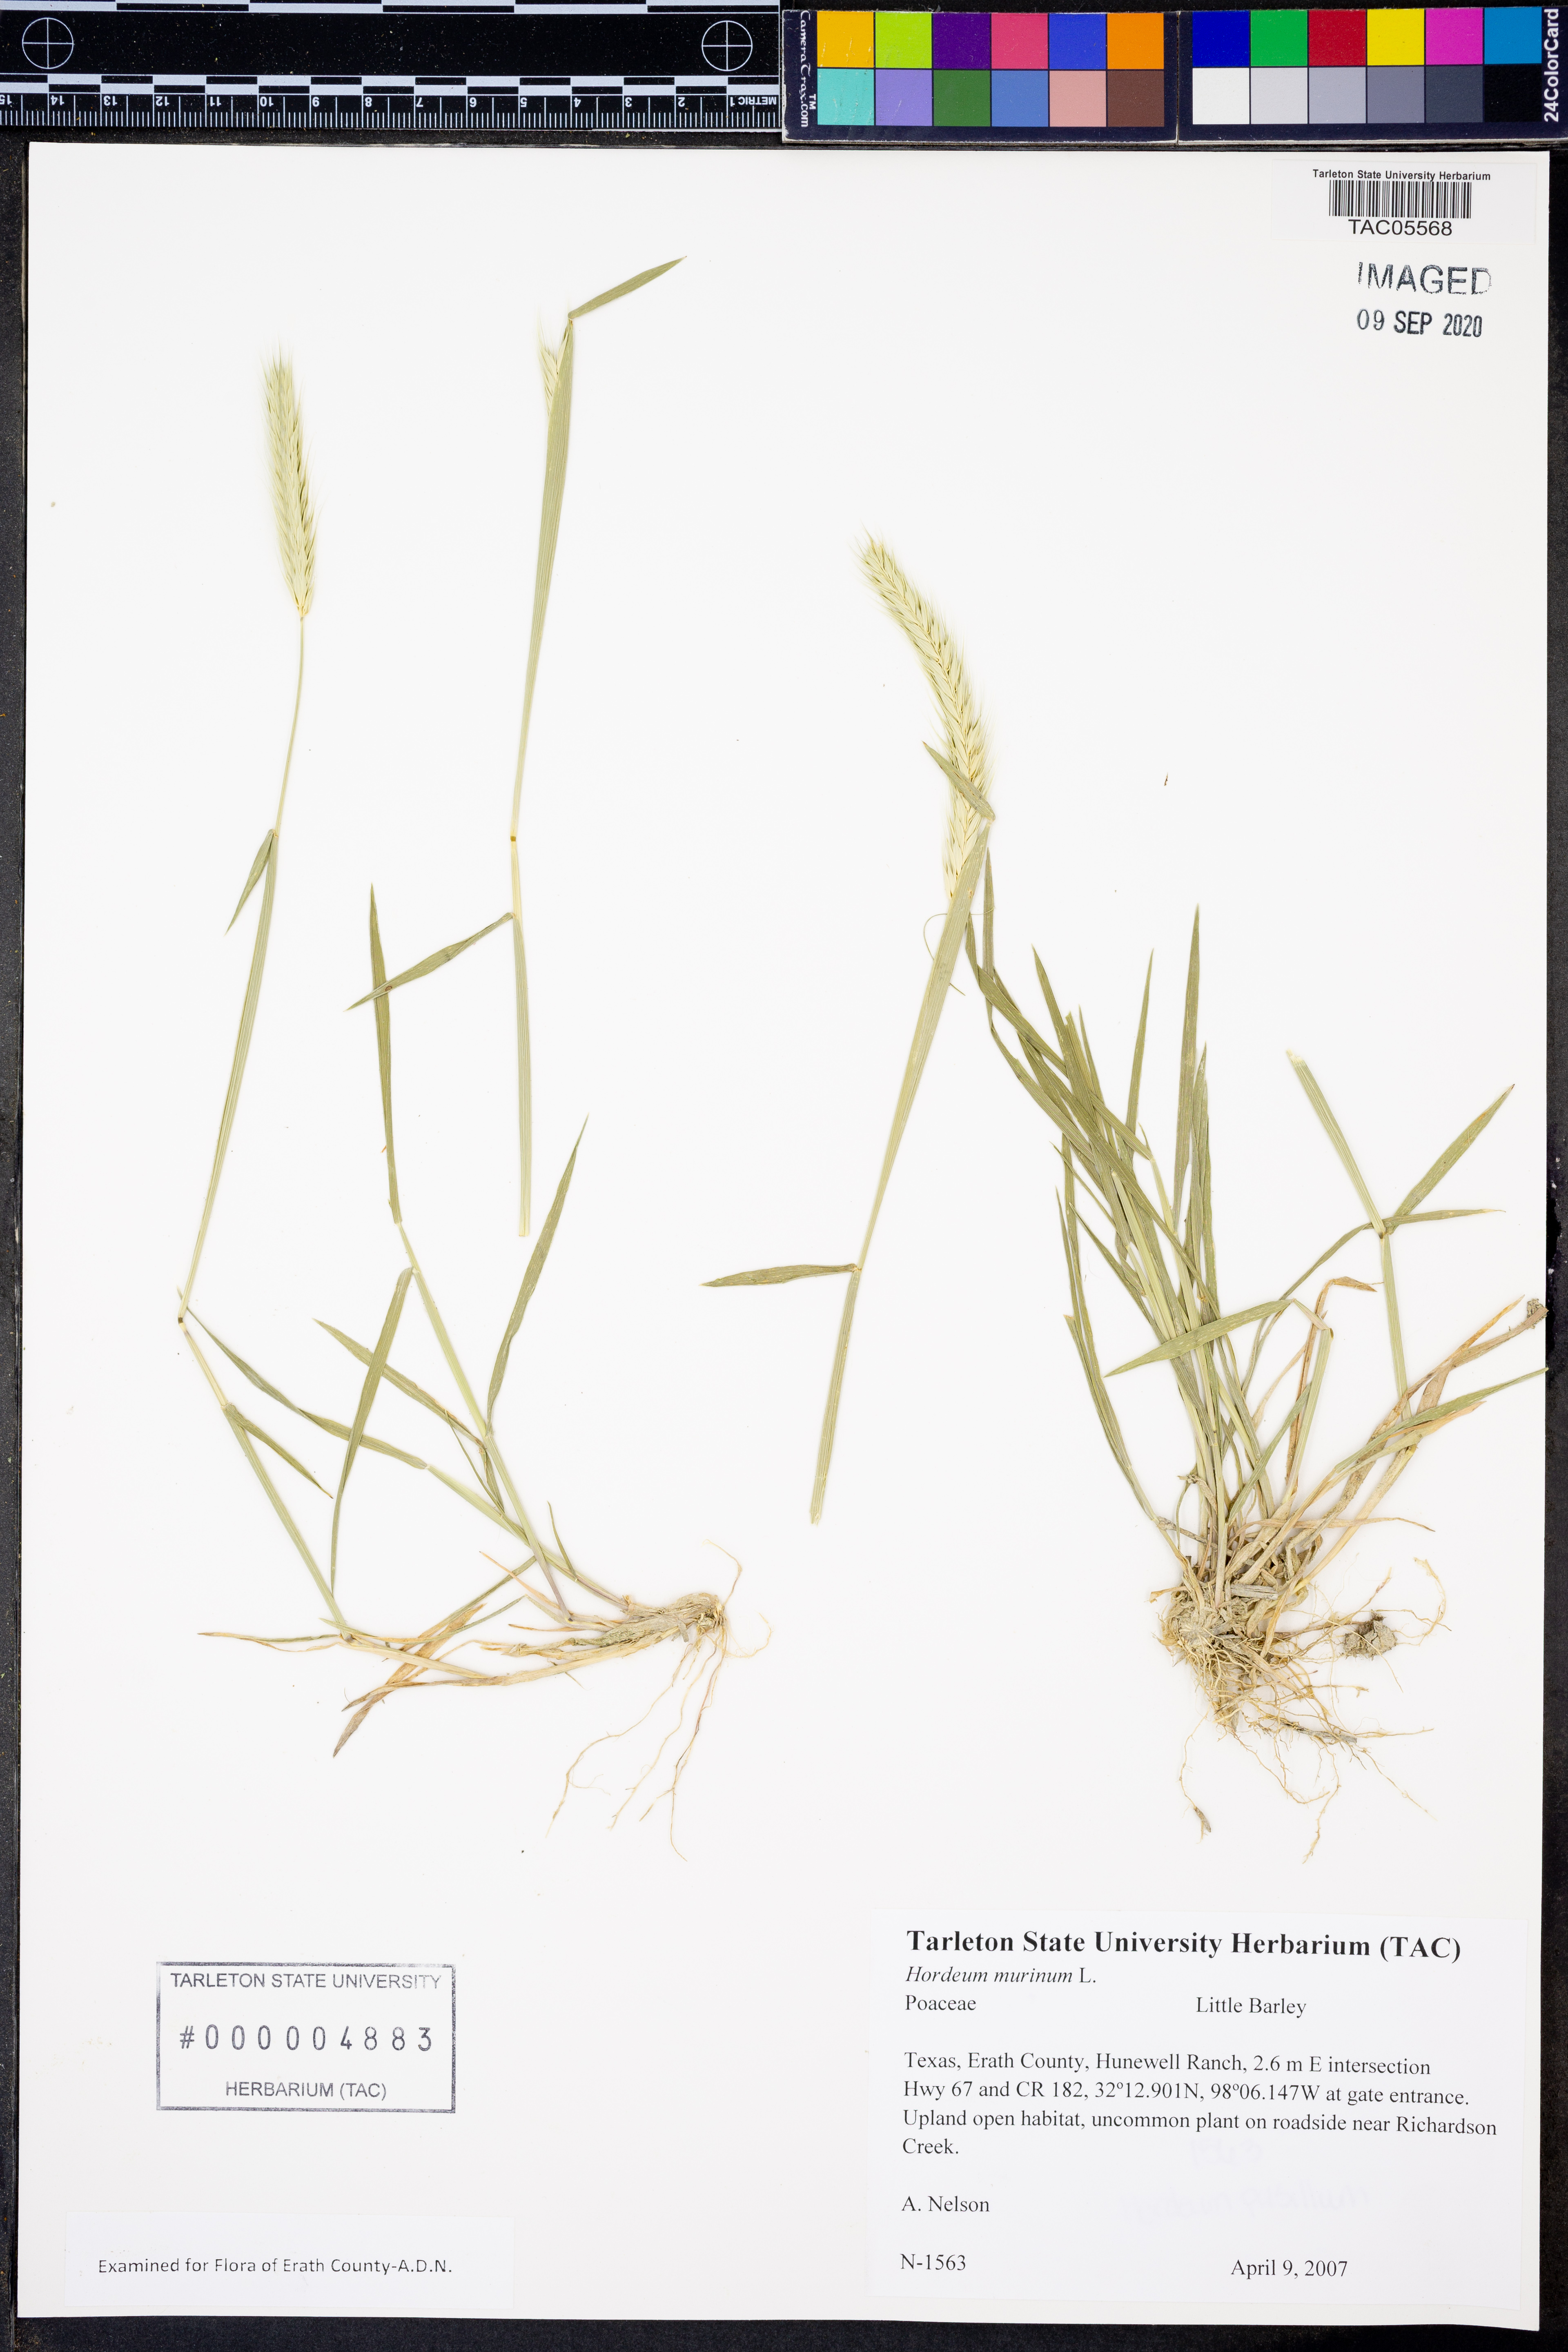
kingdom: Plantae
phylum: Tracheophyta
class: Liliopsida
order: Poales
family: Poaceae
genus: Hordeum
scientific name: Hordeum murinum
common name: Wall barley
